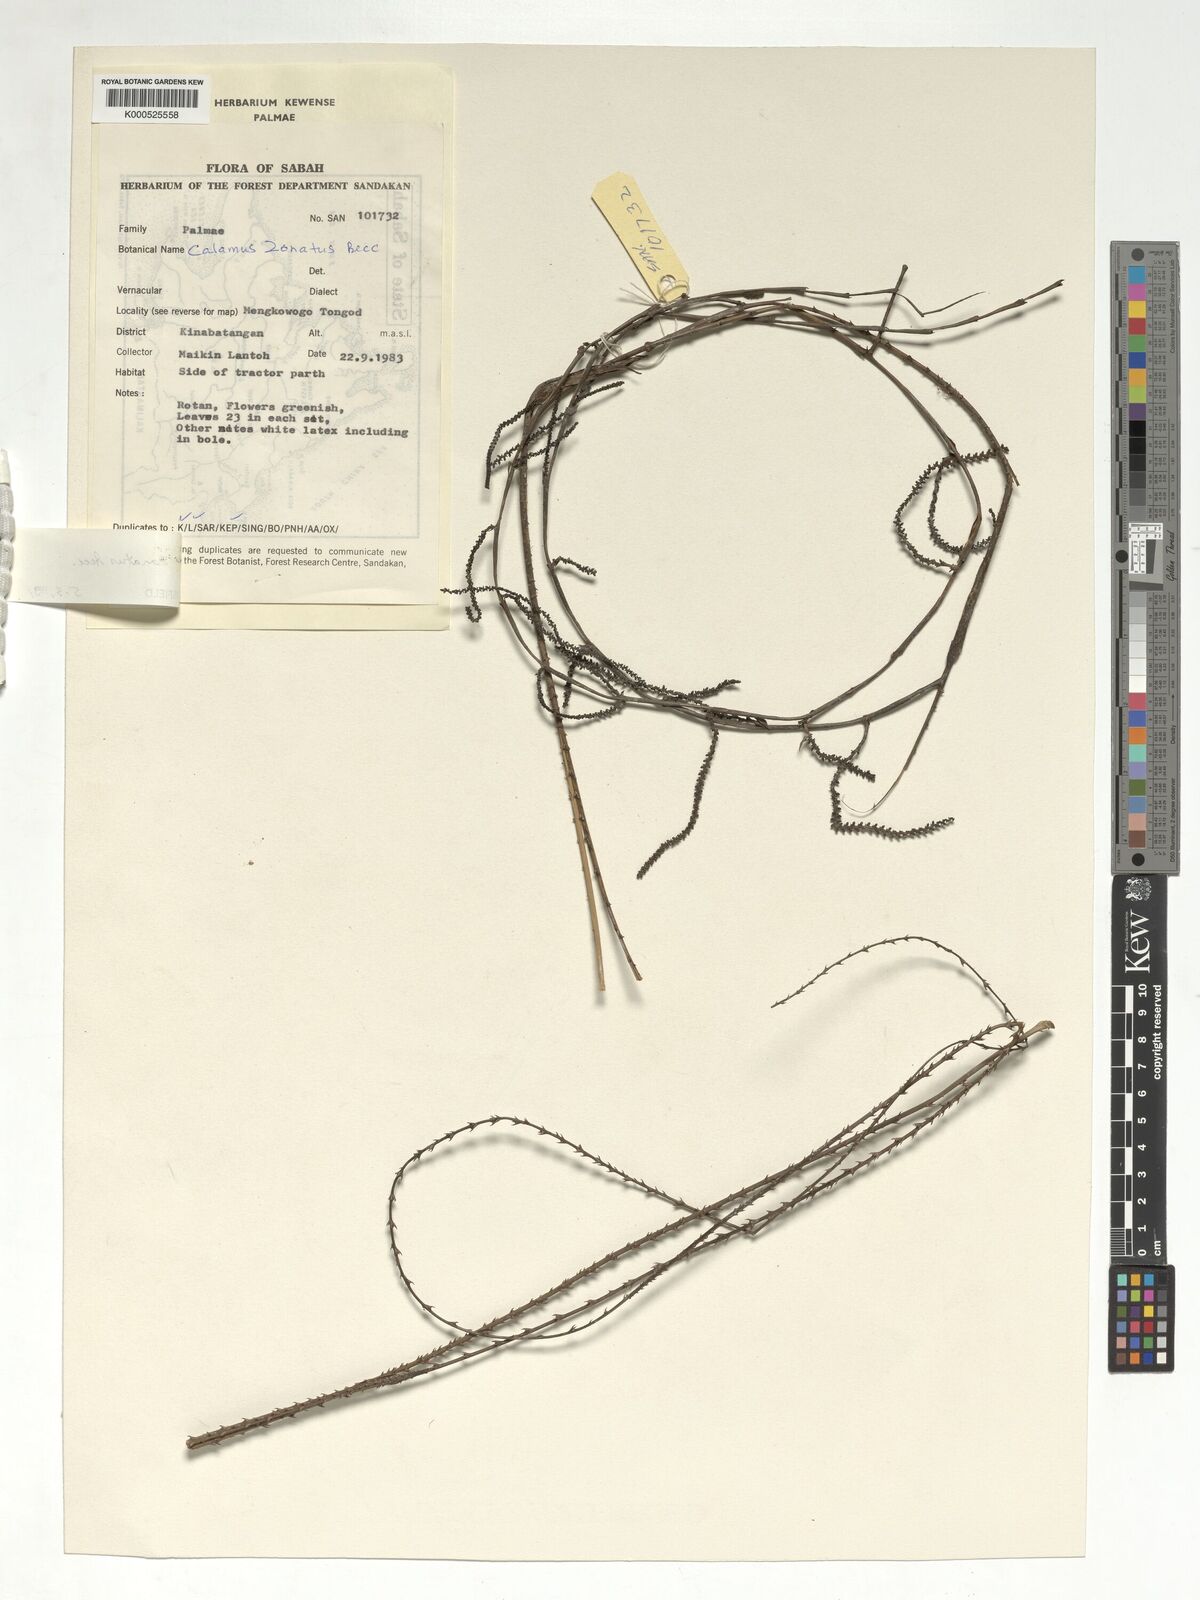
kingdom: Plantae
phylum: Tracheophyta
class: Liliopsida
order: Arecales
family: Arecaceae
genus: Calamus
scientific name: Calamus zonatus
